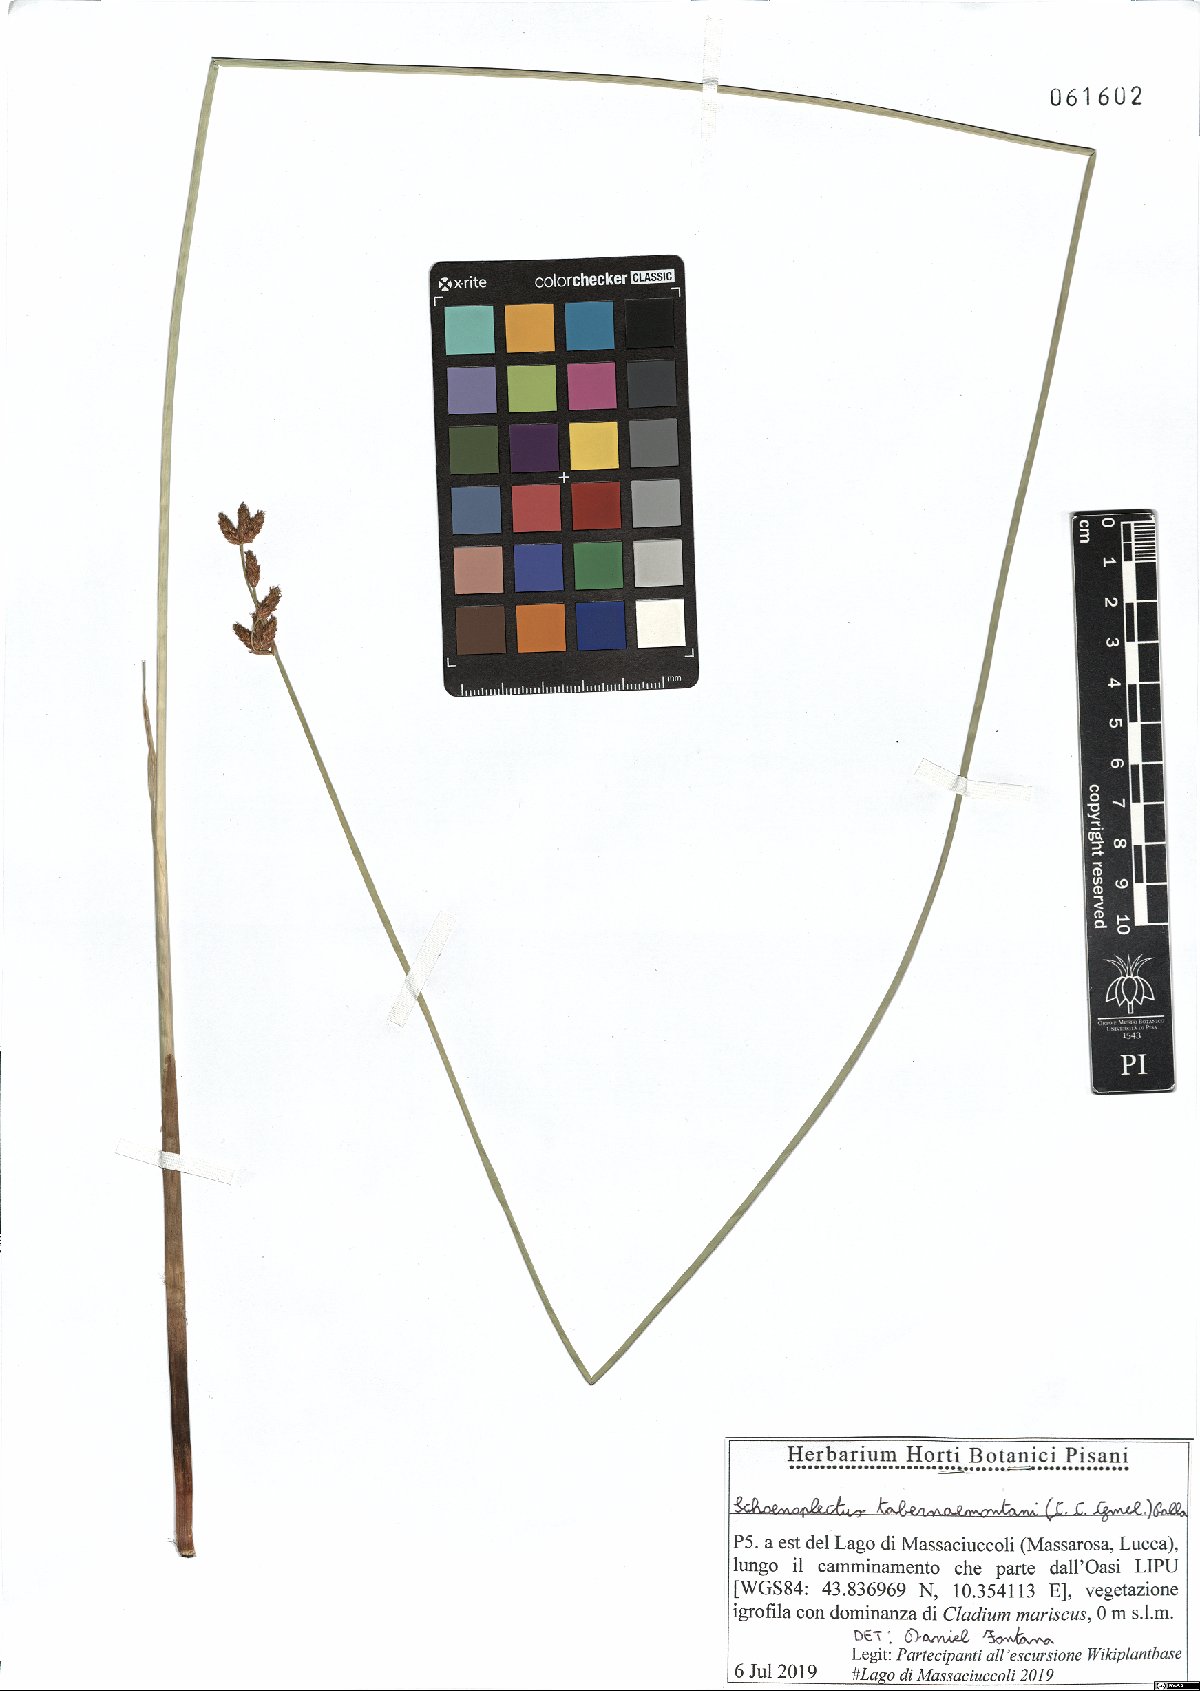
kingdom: Plantae
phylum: Tracheophyta
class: Liliopsida
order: Poales
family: Cyperaceae
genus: Schoenoplectus
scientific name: Schoenoplectus tabernaemontani
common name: Grey club-rush
